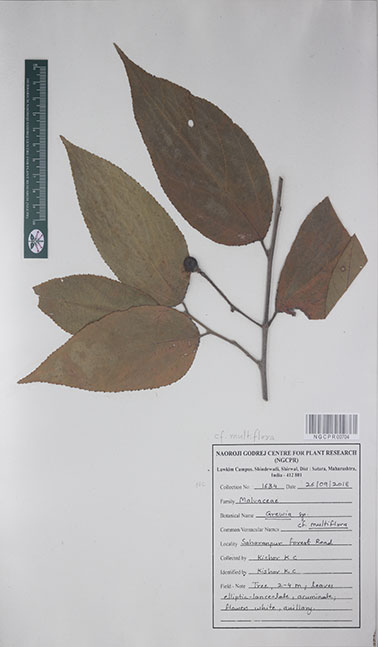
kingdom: Plantae
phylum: Tracheophyta
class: Magnoliopsida
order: Malvales
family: Malvaceae
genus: Grewia
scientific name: Grewia multiflora
